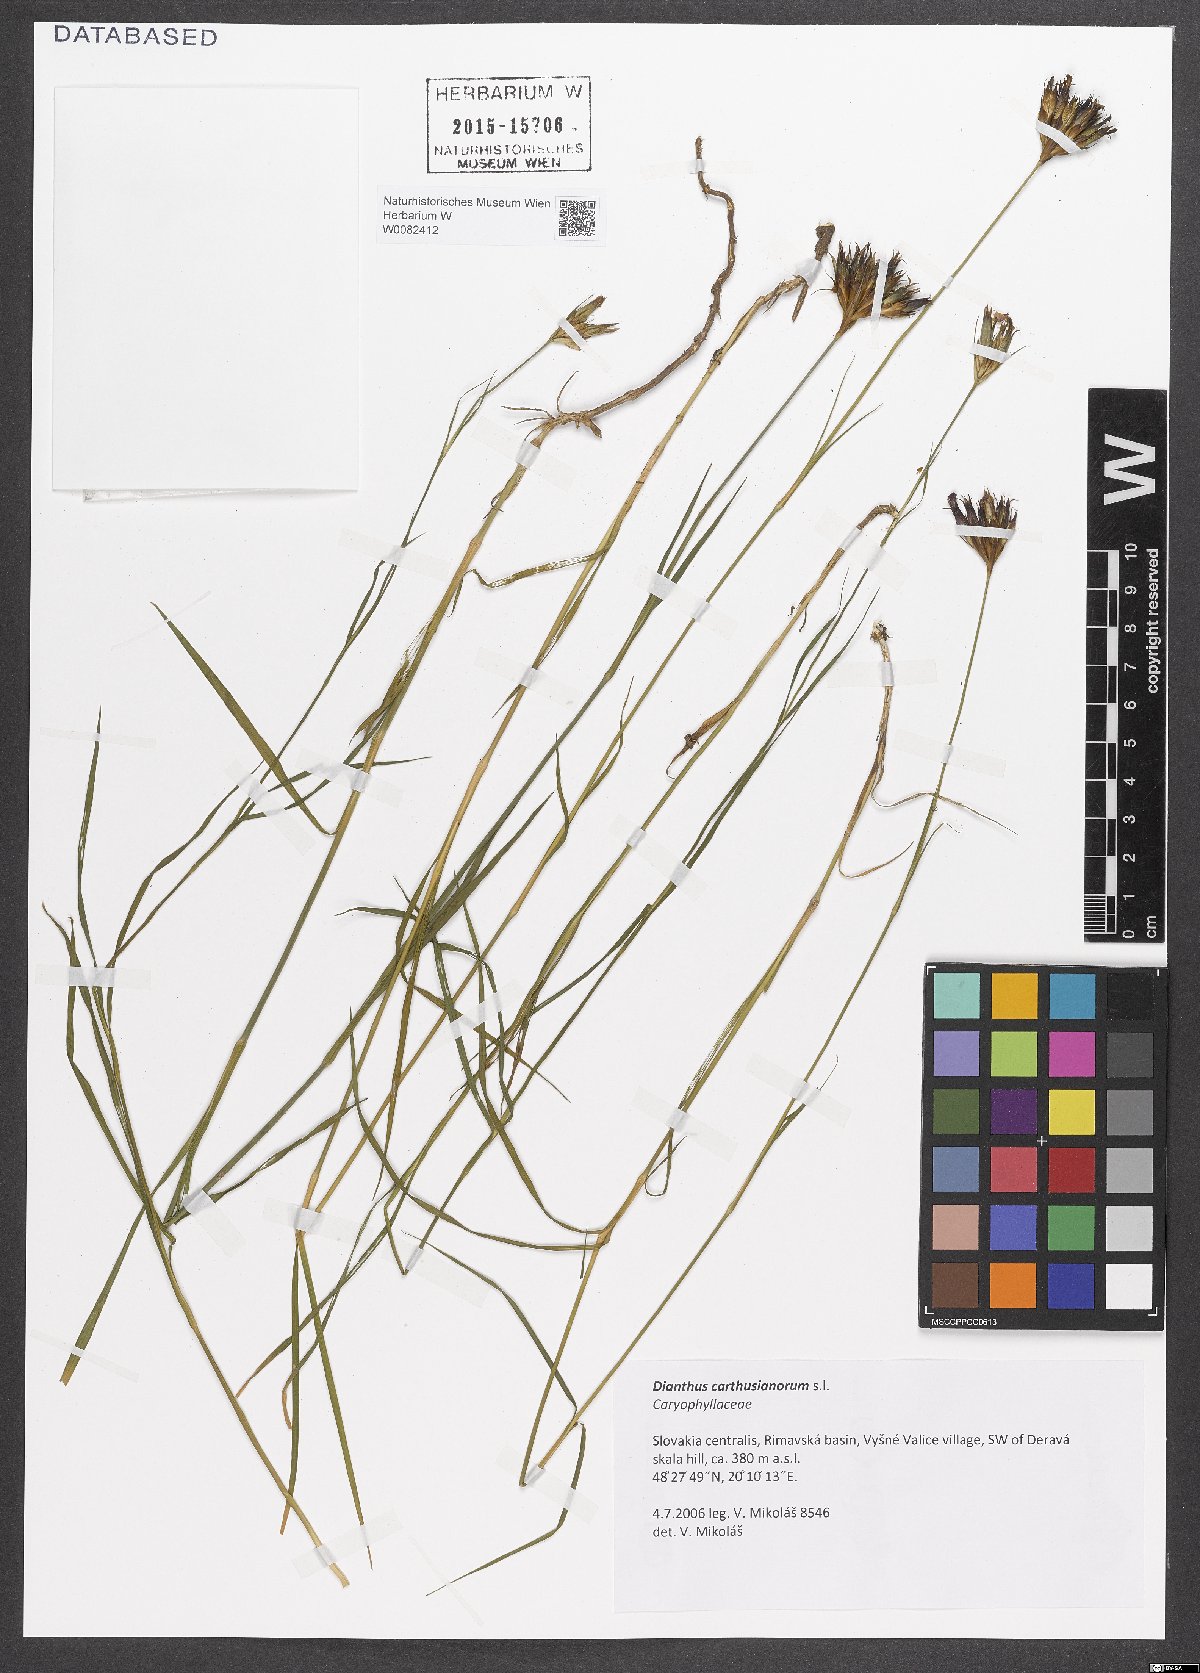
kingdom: Plantae
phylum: Tracheophyta
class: Magnoliopsida
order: Caryophyllales
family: Caryophyllaceae
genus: Dianthus
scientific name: Dianthus carthusianorum
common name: Carthusian pink
